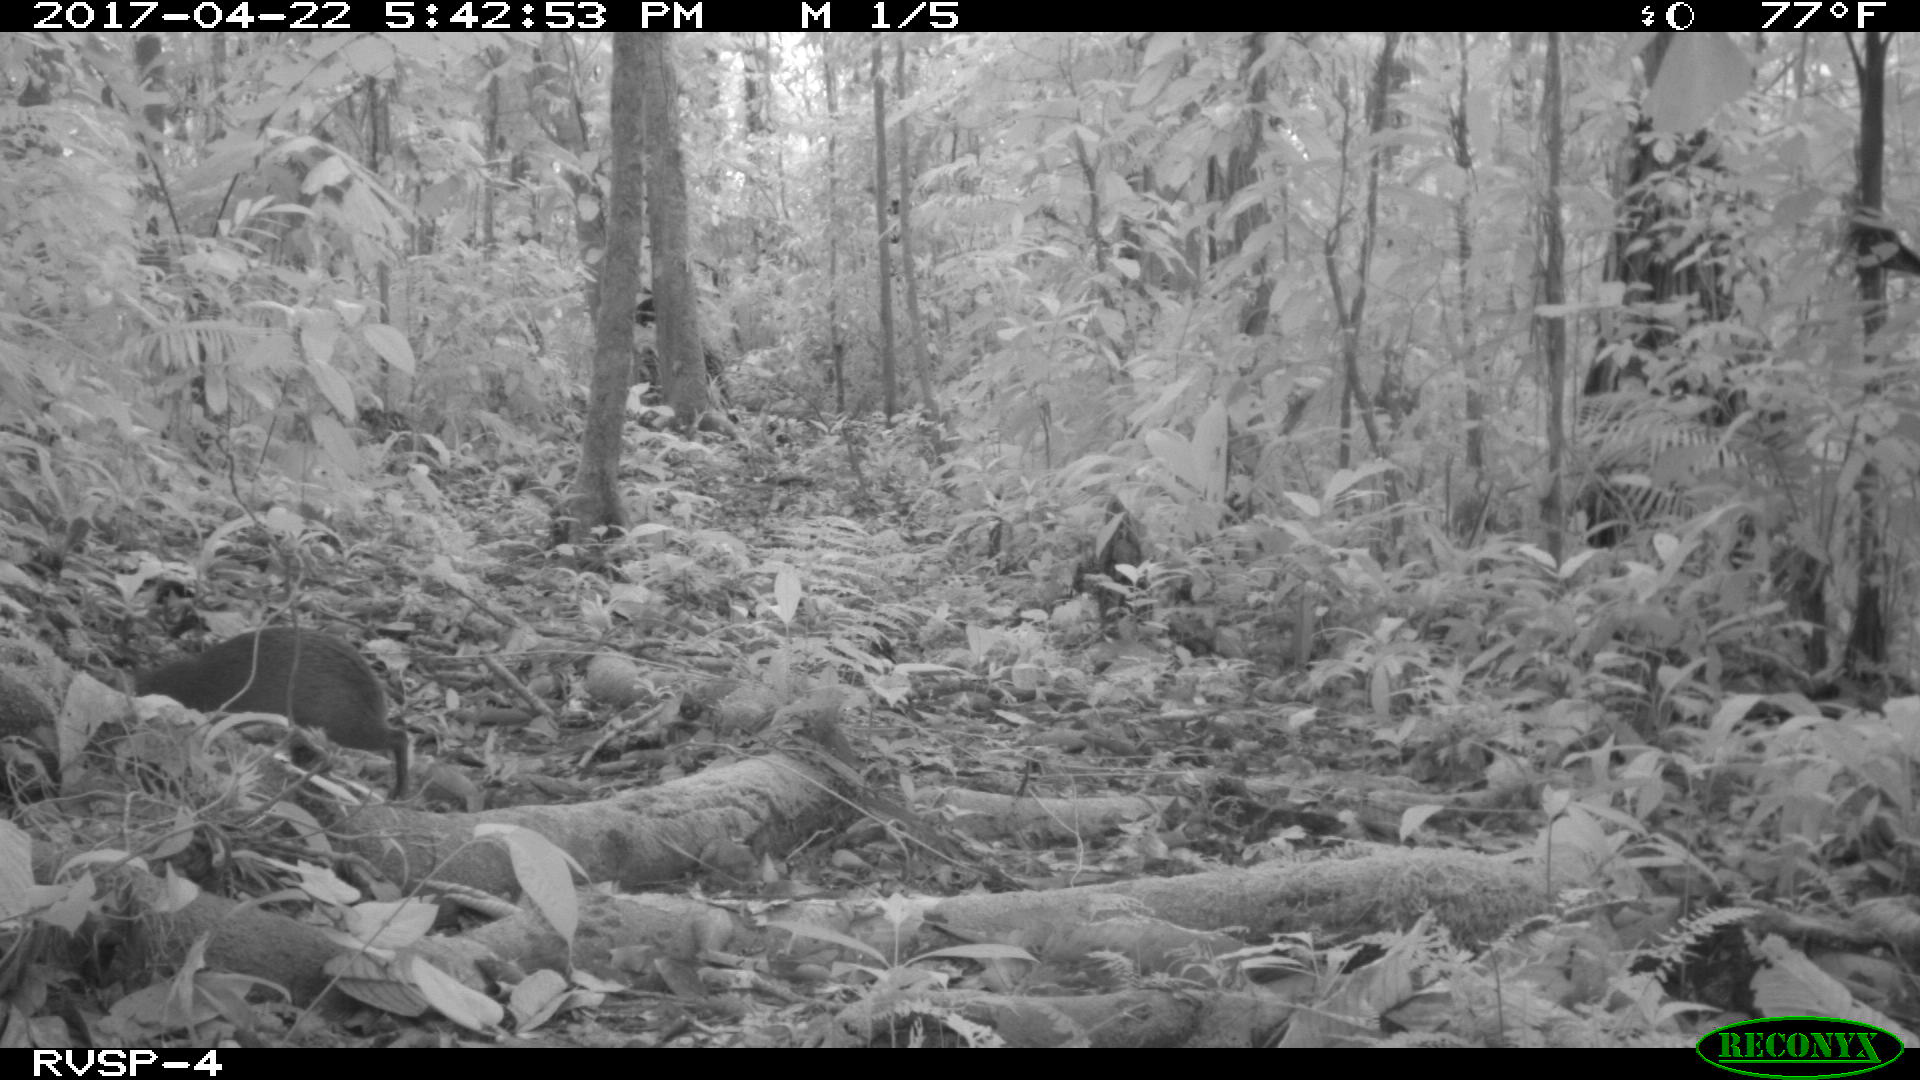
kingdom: Animalia
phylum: Chordata
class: Mammalia
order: Rodentia
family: Dasyproctidae
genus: Dasyprocta
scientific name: Dasyprocta punctata
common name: Central american agouti
